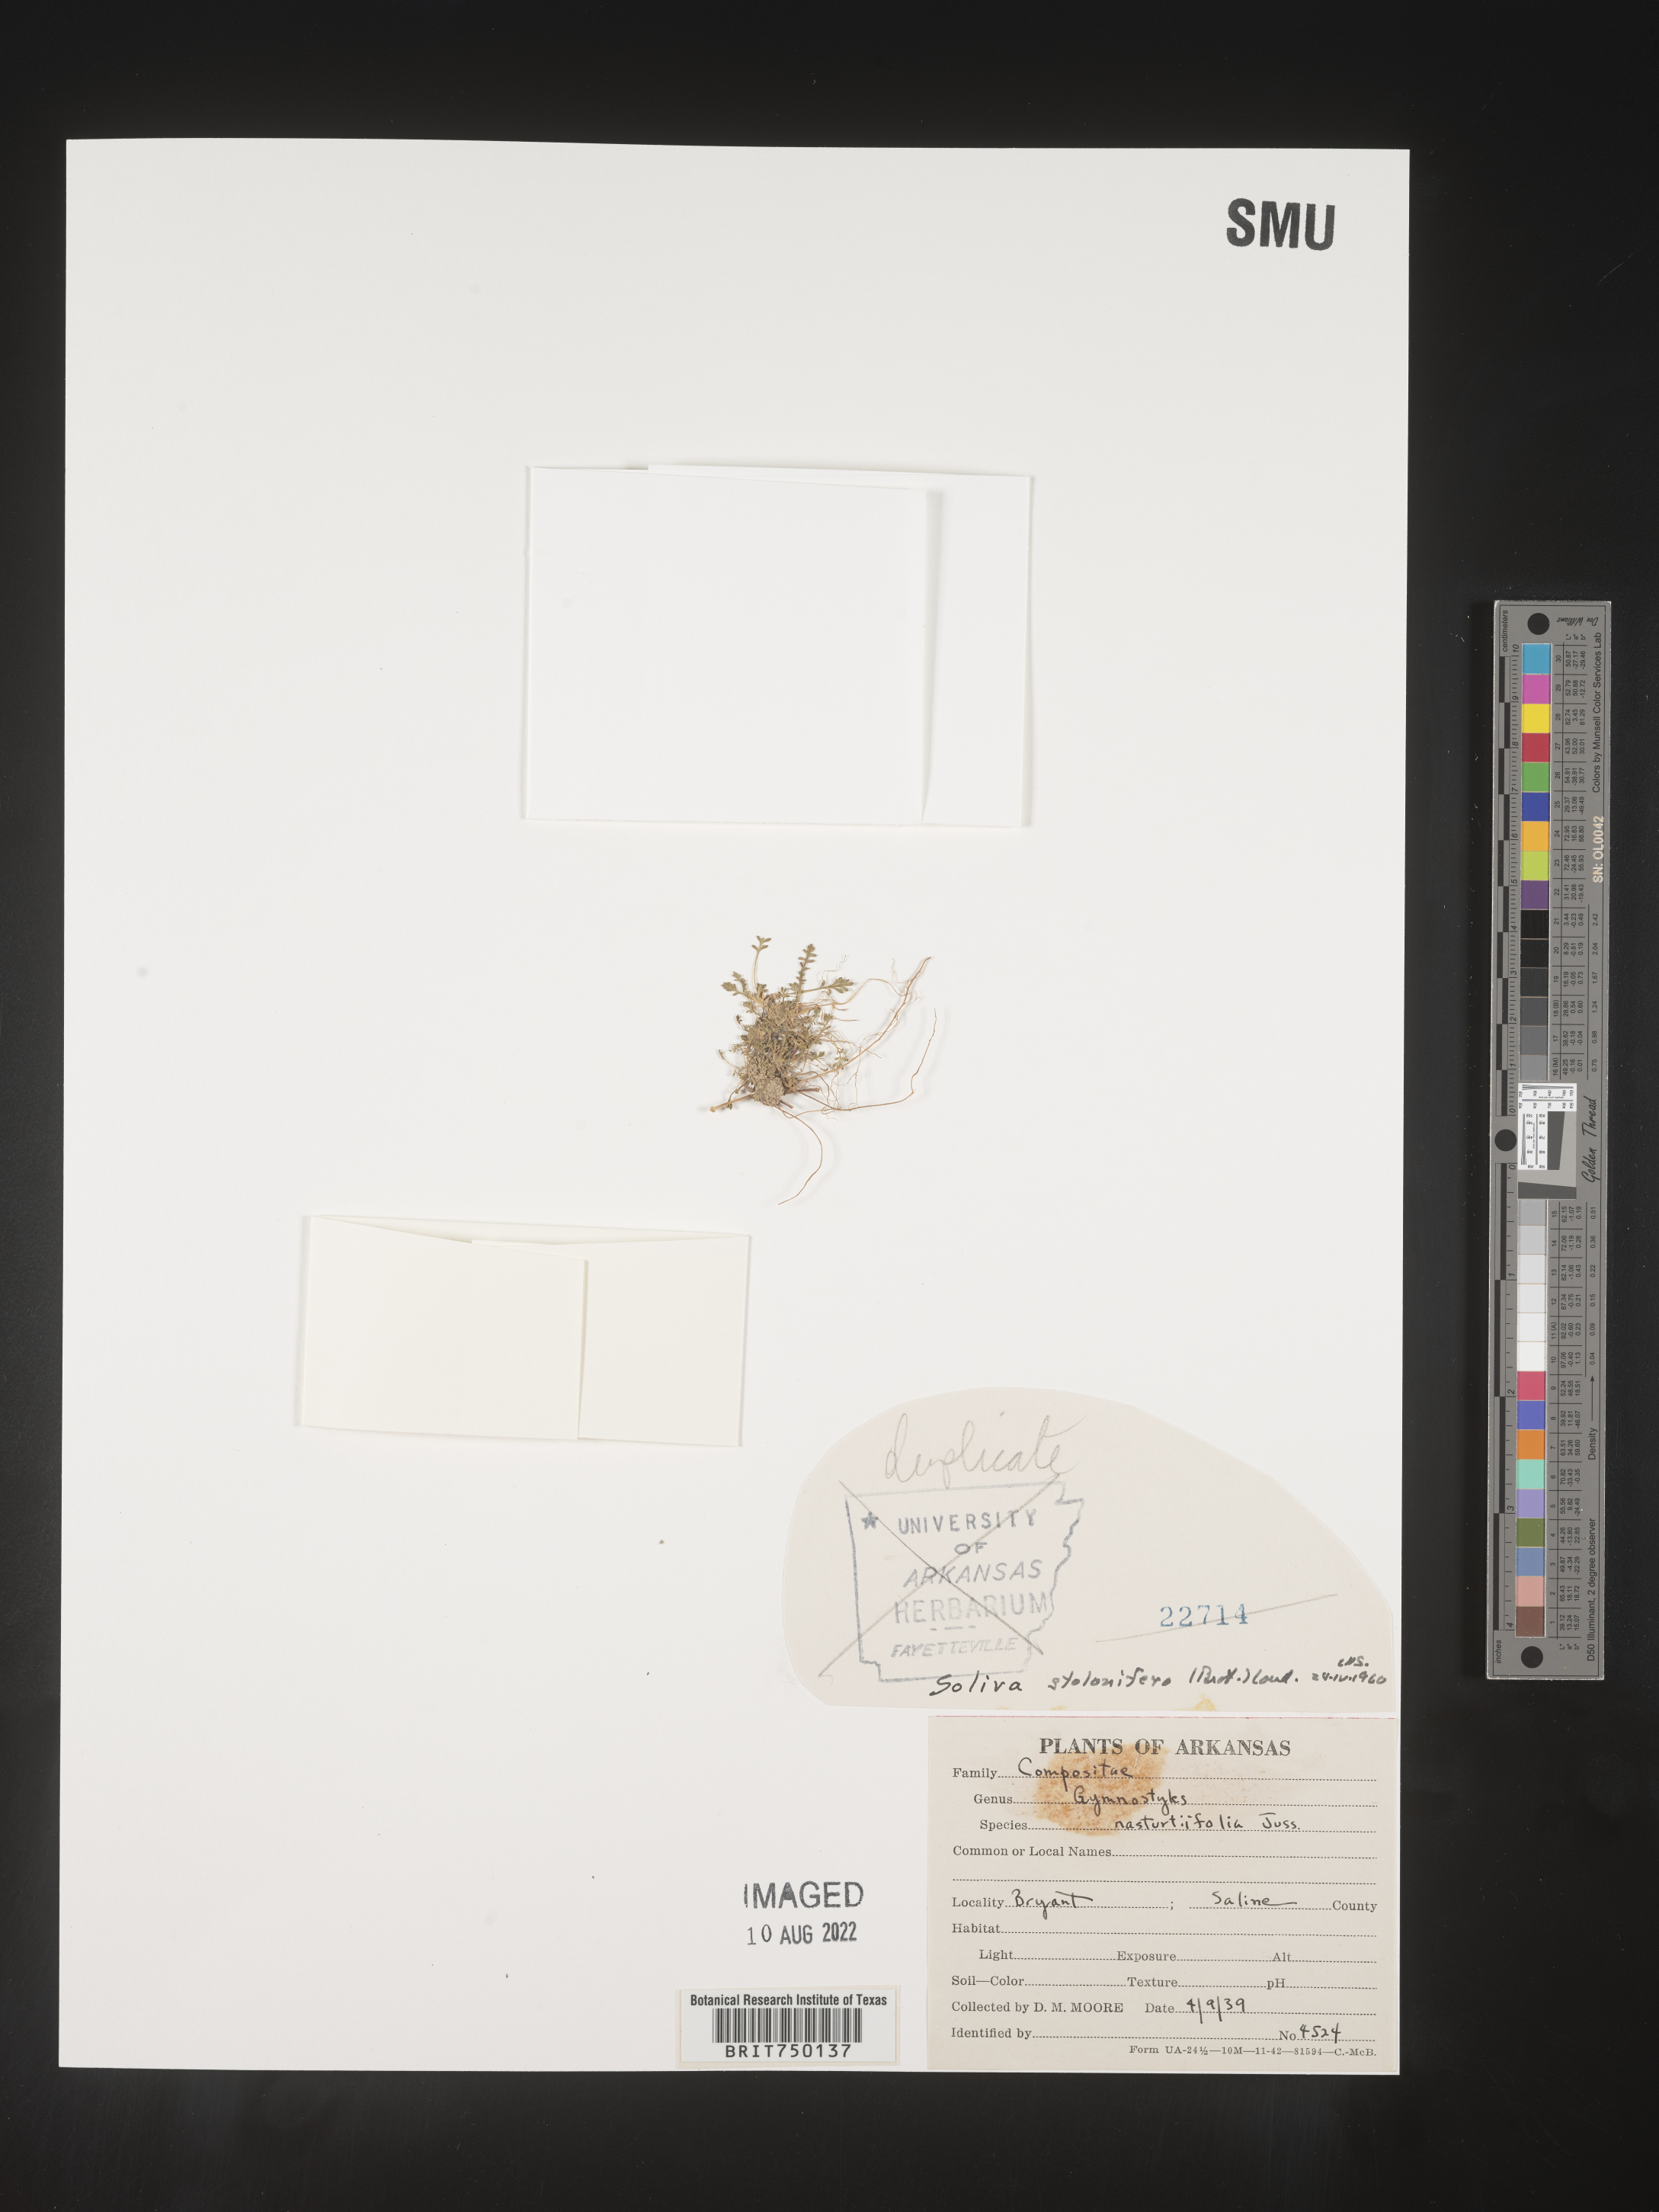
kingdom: Plantae
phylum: Tracheophyta
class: Magnoliopsida
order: Asterales
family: Asteraceae
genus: Soliva
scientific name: Soliva
